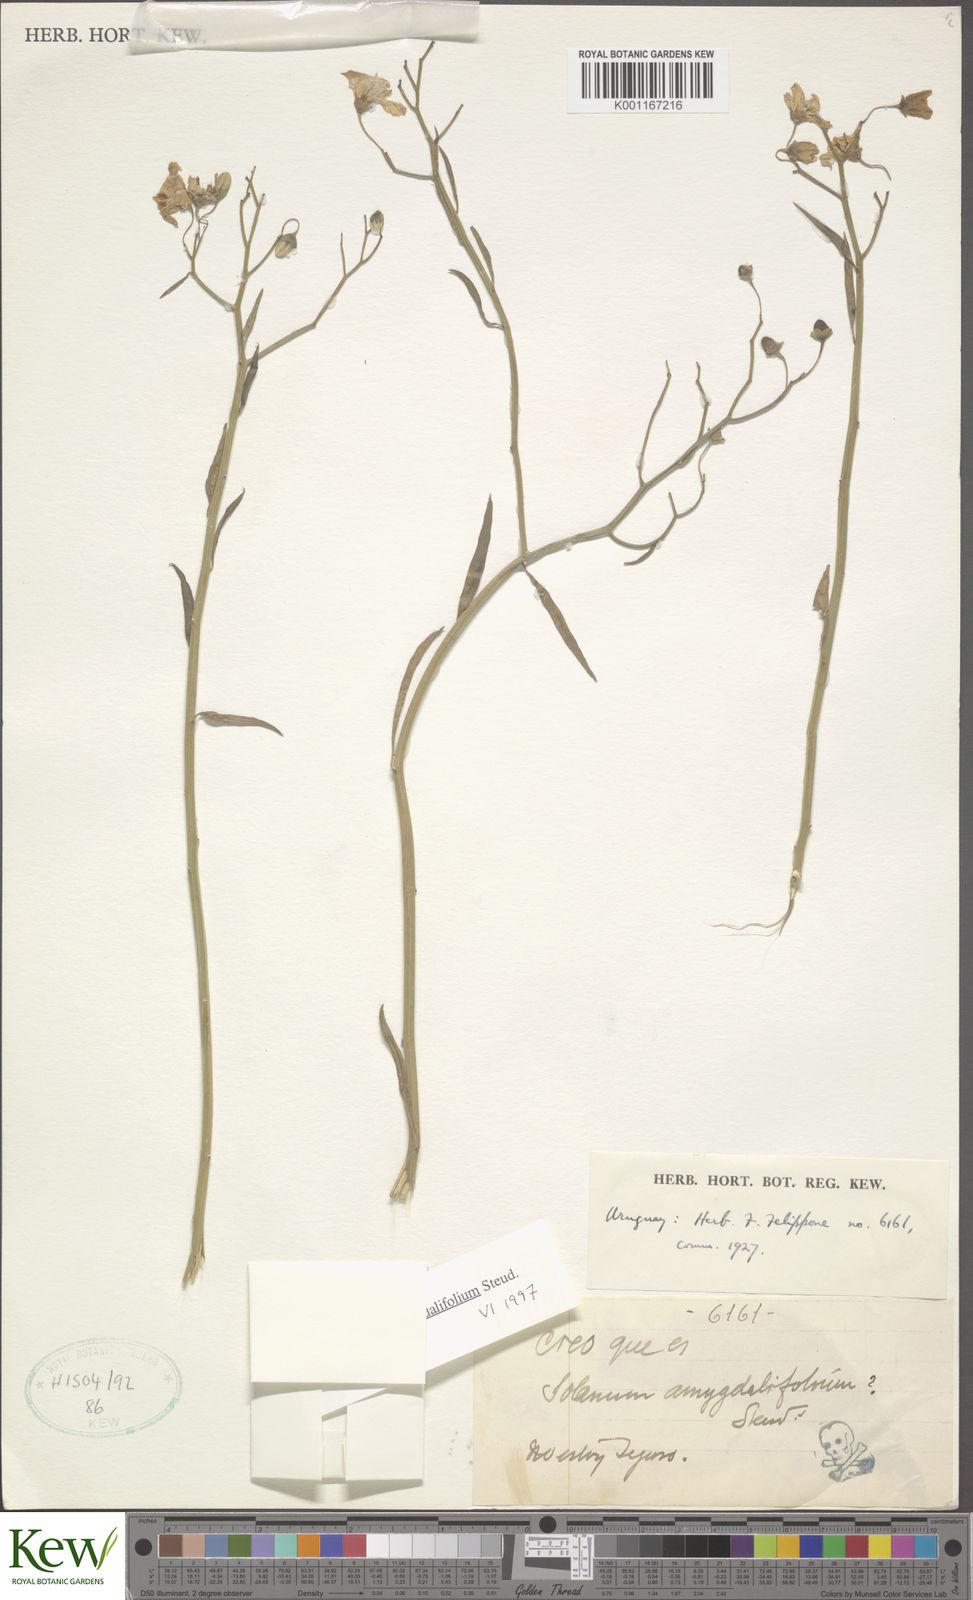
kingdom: Plantae
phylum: Tracheophyta
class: Magnoliopsida
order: Solanales
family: Solanaceae
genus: Solanum
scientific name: Solanum amygdalifolium
